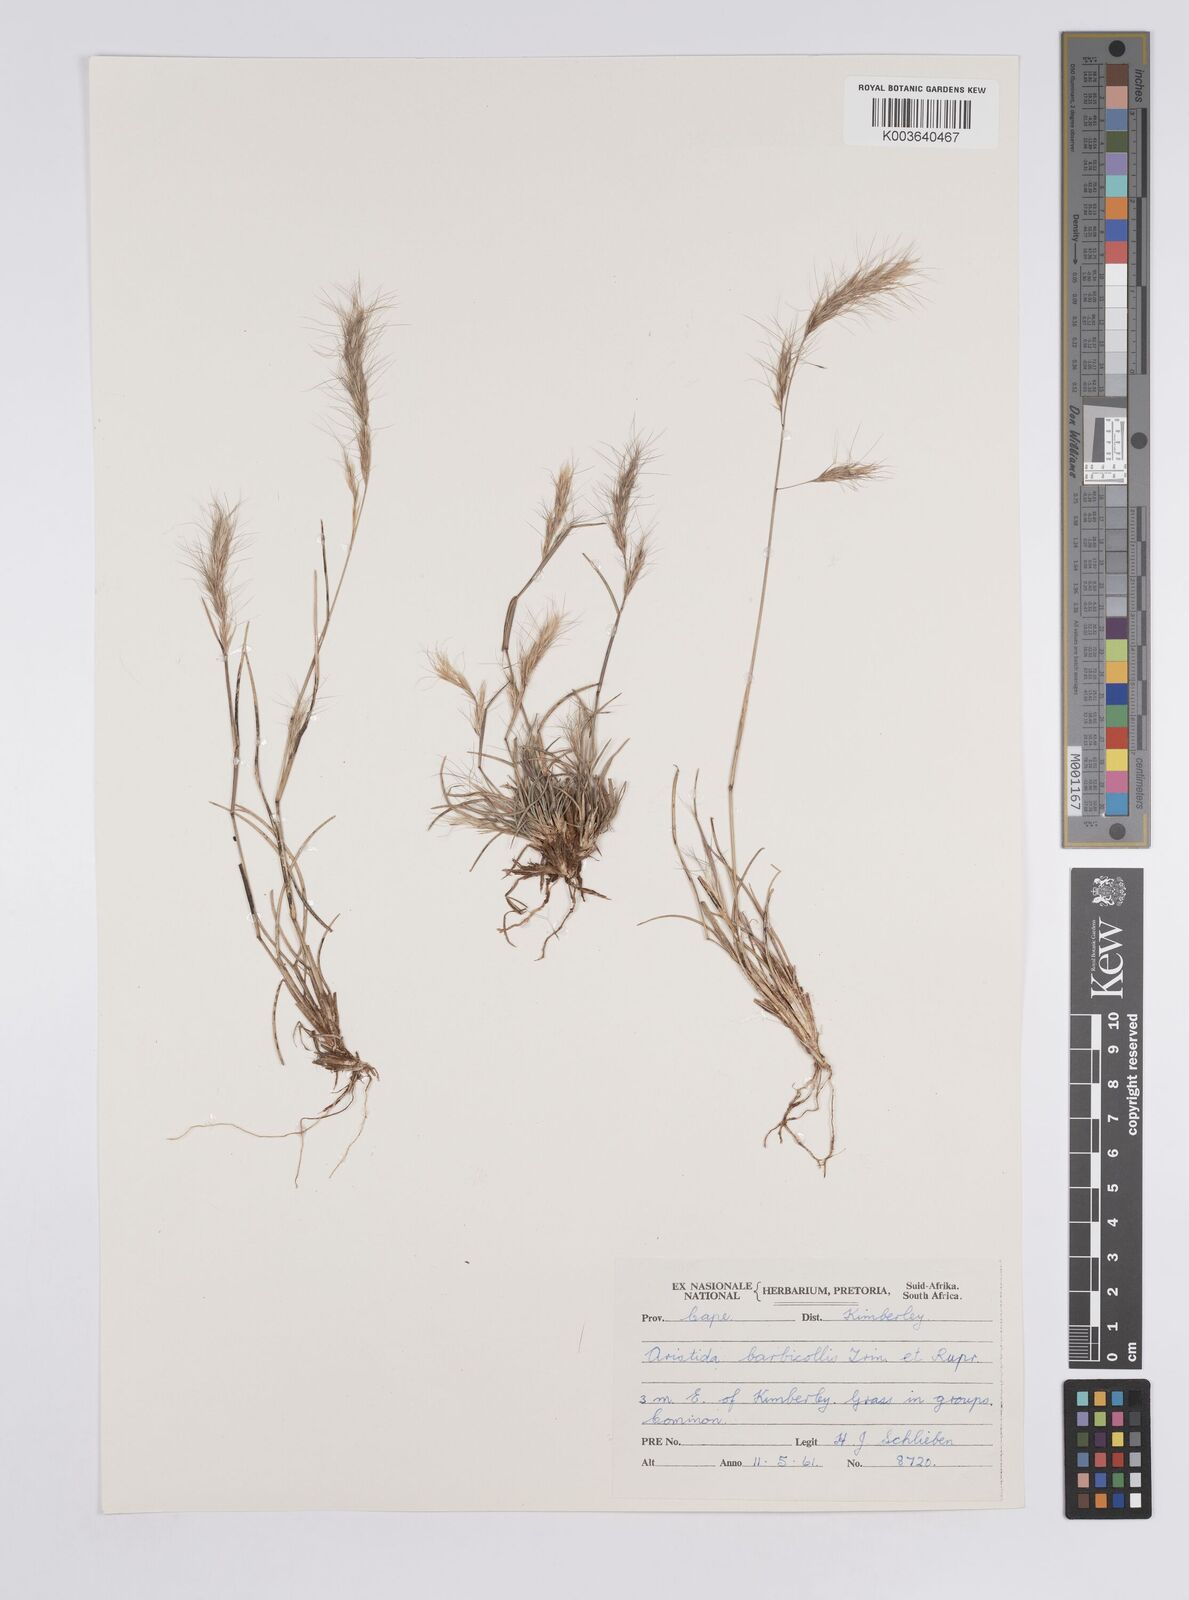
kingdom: Plantae
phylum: Tracheophyta
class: Liliopsida
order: Poales
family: Poaceae
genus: Aristida
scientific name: Aristida barbicollis
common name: Spreading prickle grass
